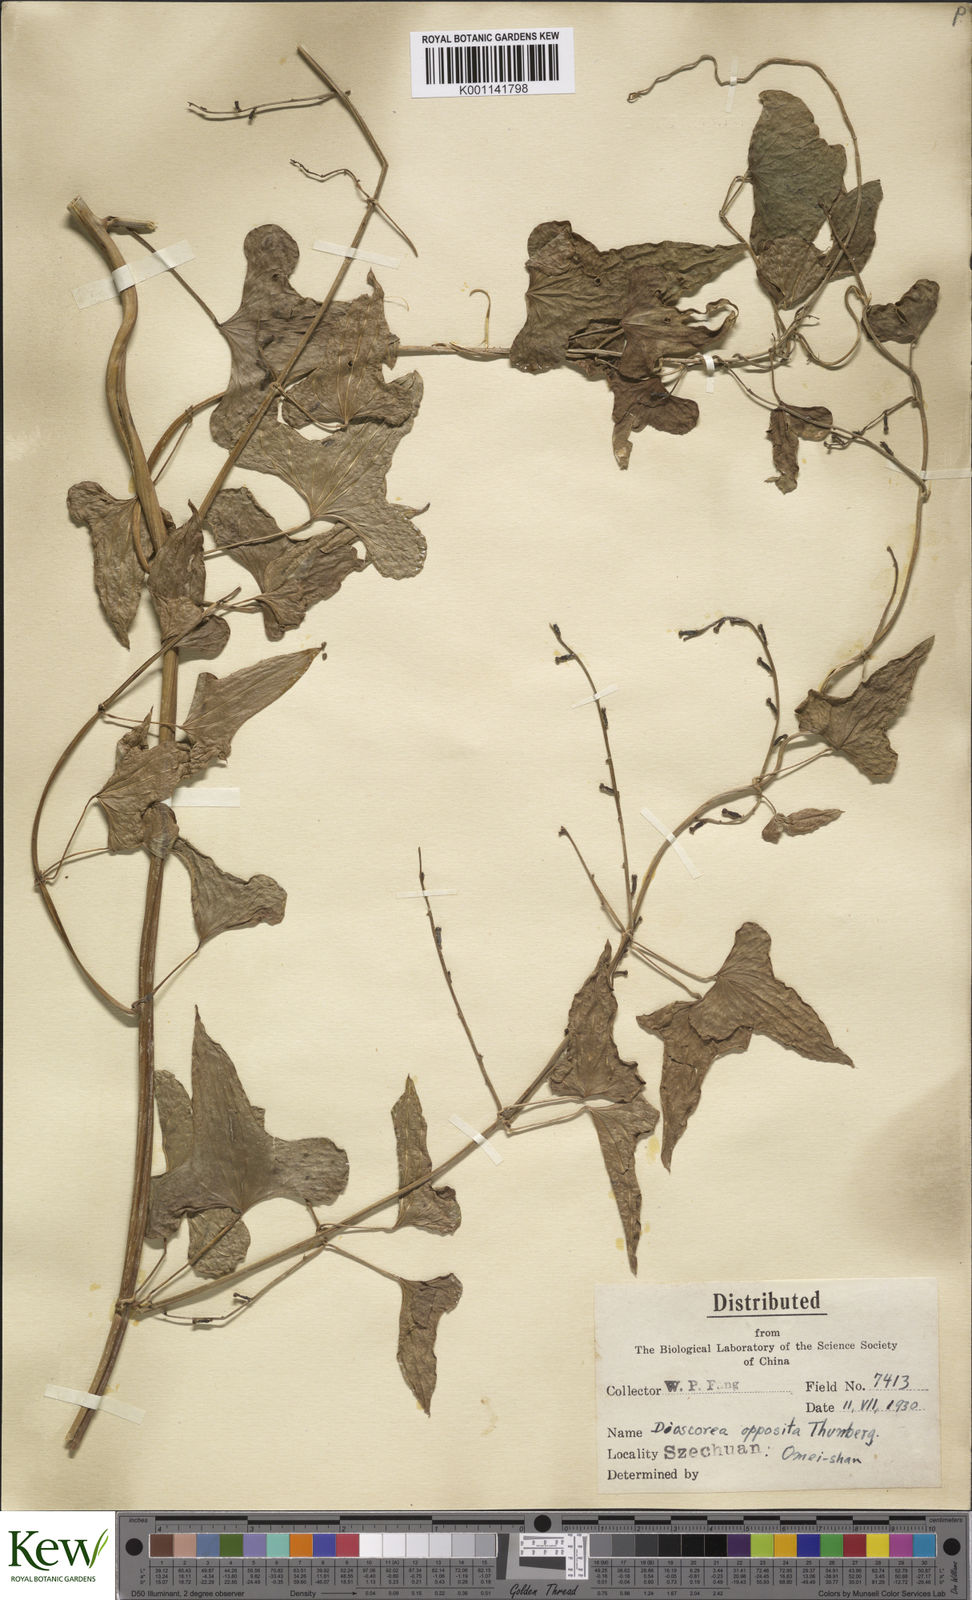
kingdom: Plantae
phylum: Tracheophyta
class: Liliopsida
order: Dioscoreales
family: Dioscoreaceae
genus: Dioscorea
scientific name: Dioscorea oppositifolia
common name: Chinese yam
